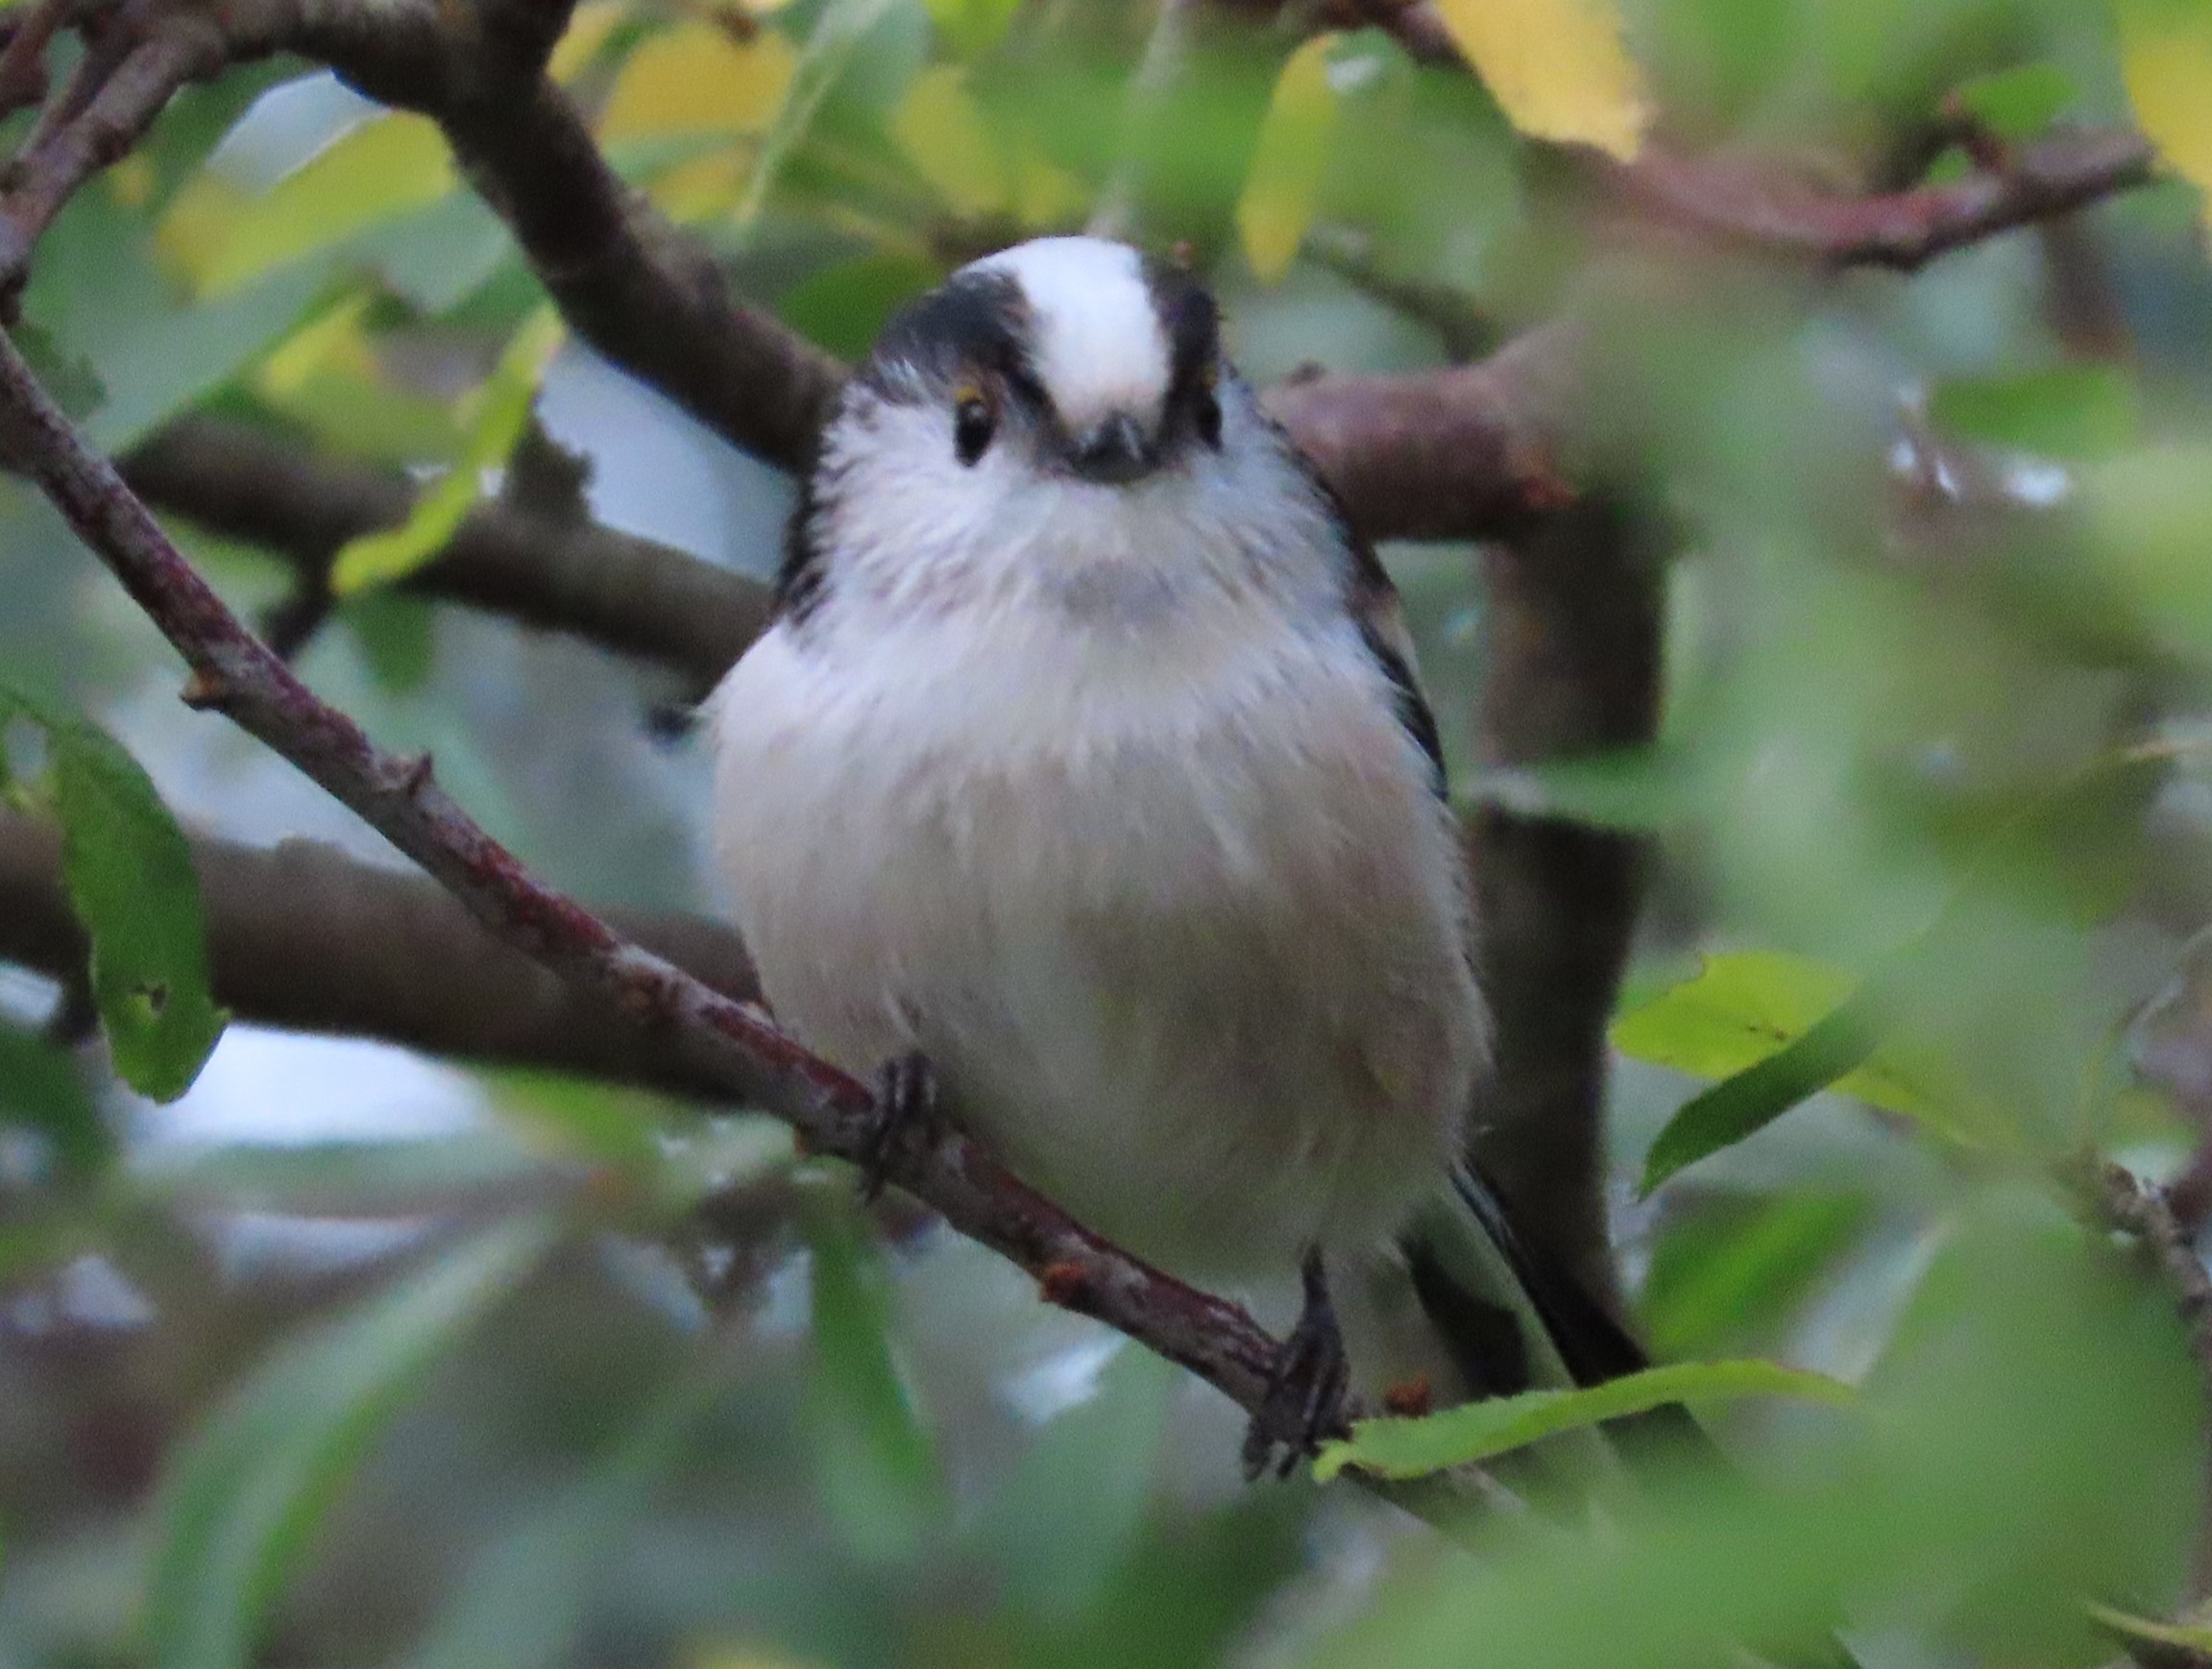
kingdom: Animalia
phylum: Chordata
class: Aves
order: Passeriformes
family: Aegithalidae
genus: Aegithalos
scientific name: Aegithalos caudatus
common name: Halemejse
